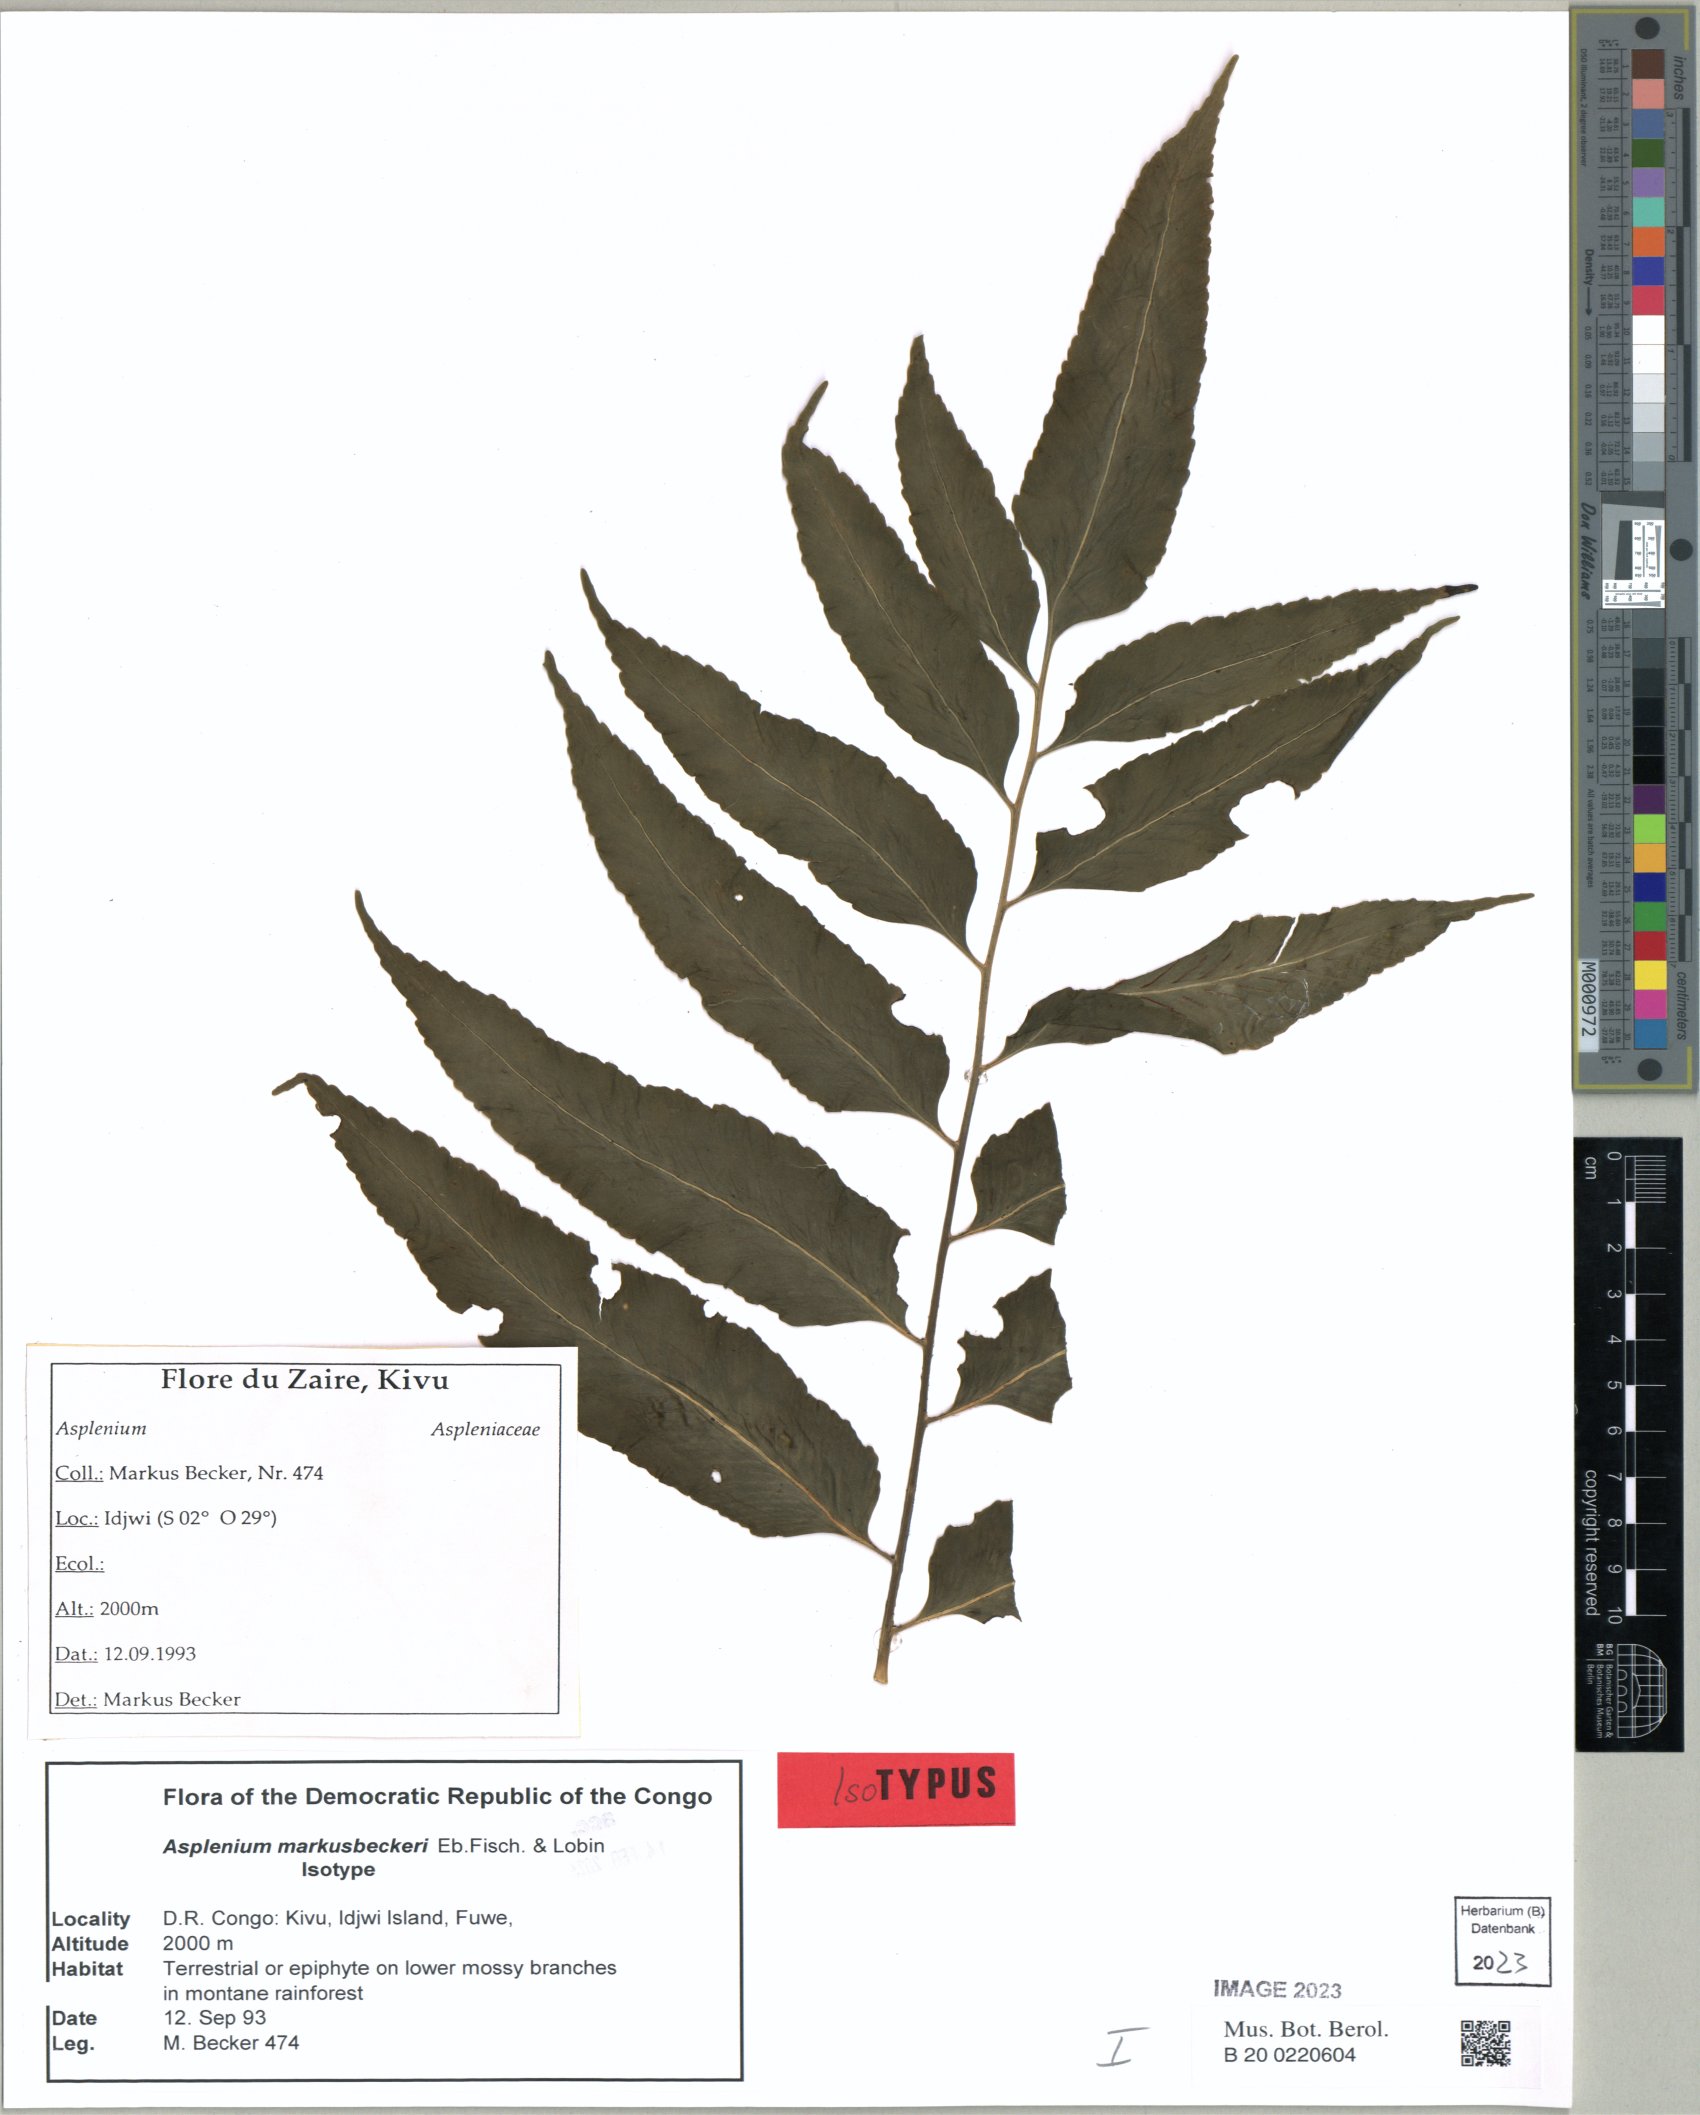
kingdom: Plantae
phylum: Tracheophyta
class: Polypodiopsida
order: Polypodiales
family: Aspleniaceae
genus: Asplenium
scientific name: Asplenium
